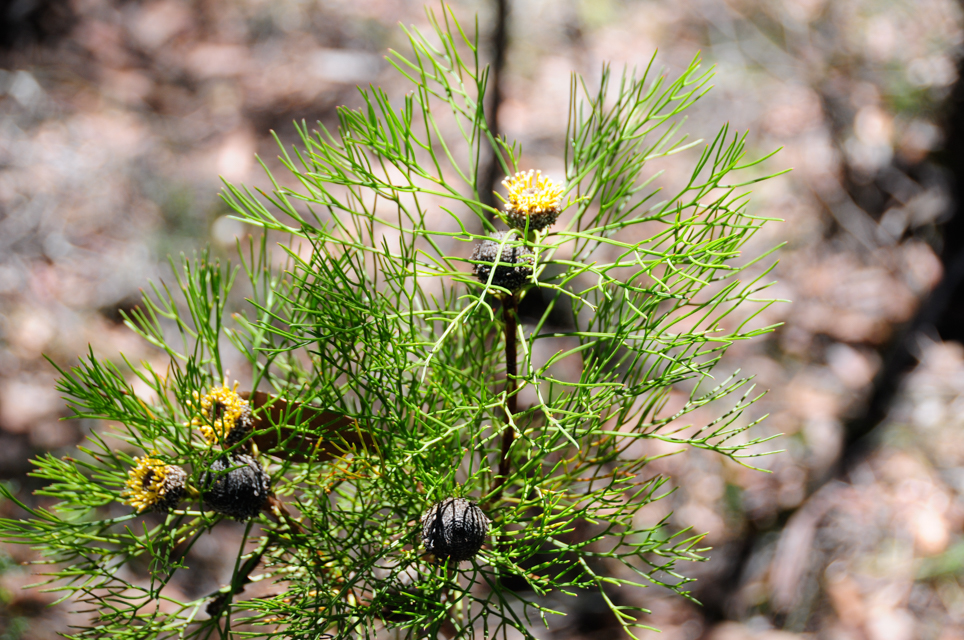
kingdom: Plantae
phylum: Tracheophyta
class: Magnoliopsida
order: Proteales
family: Proteaceae
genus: Isopogon
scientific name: Isopogon anethifolius
